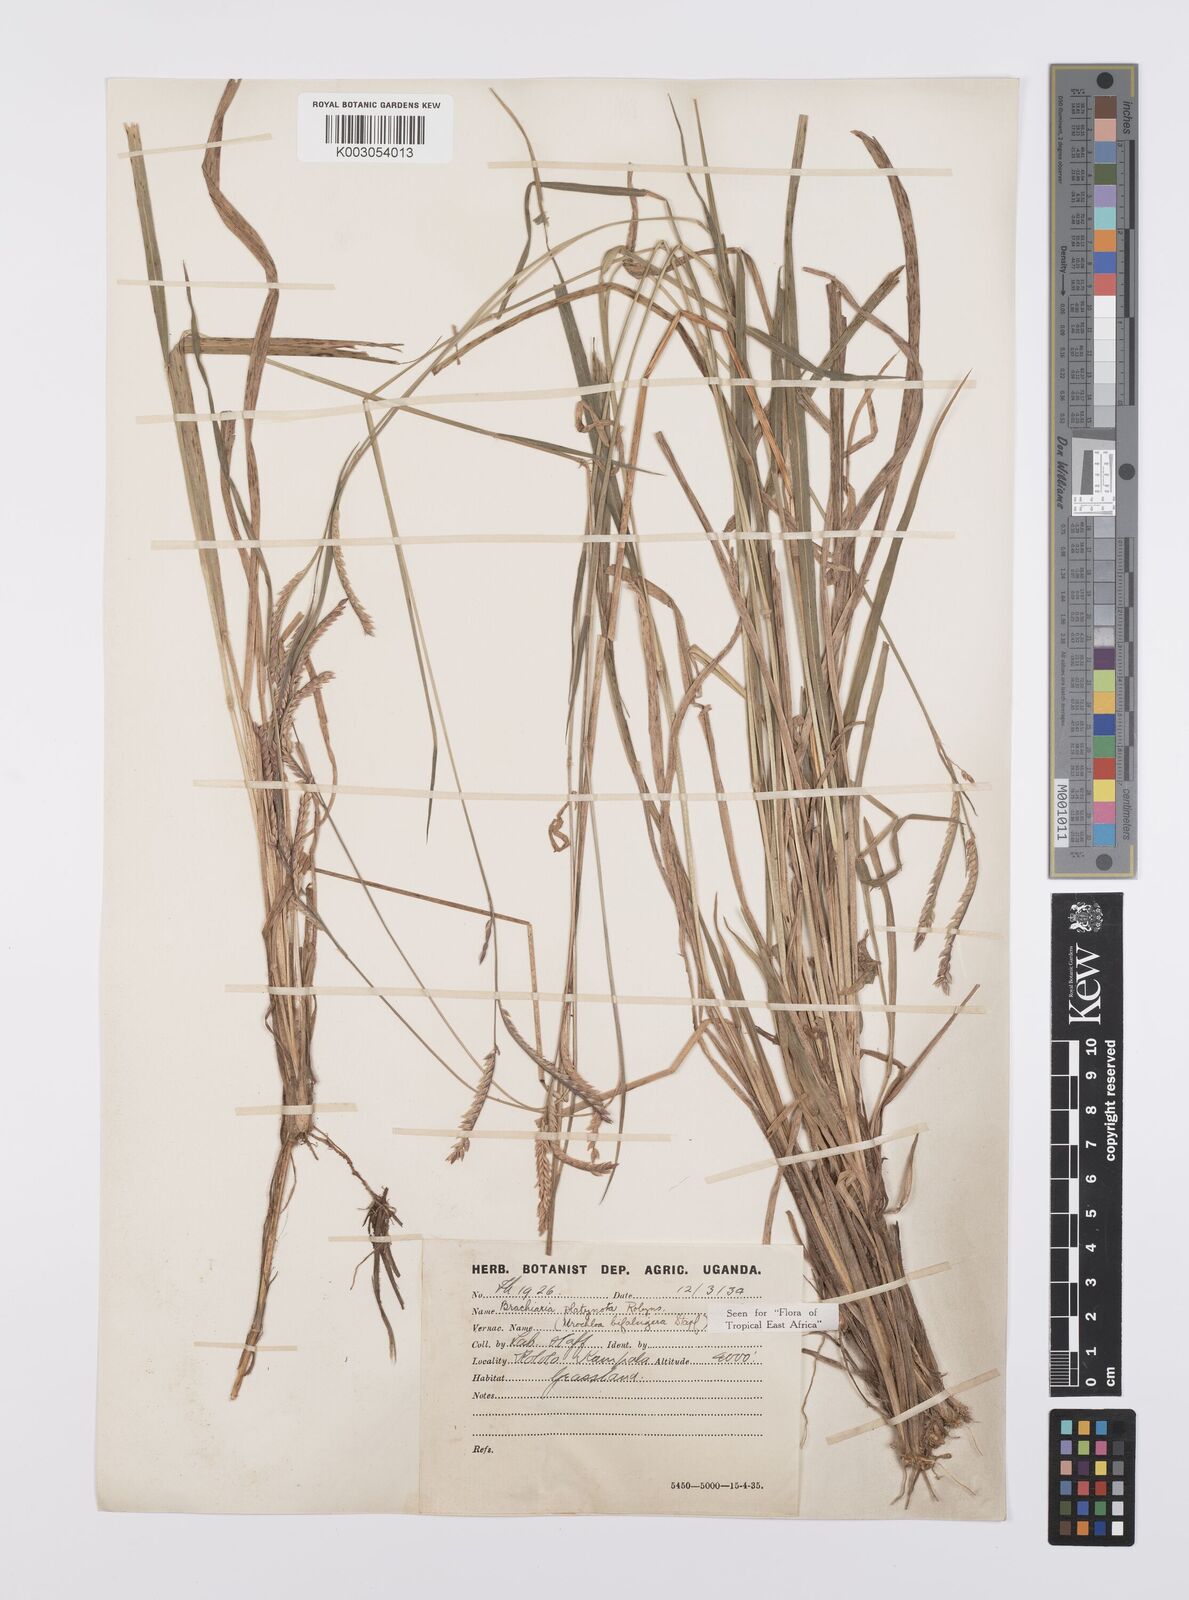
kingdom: Plantae
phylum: Tracheophyta
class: Liliopsida
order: Poales
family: Poaceae
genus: Urochloa
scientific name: Urochloa platynota
